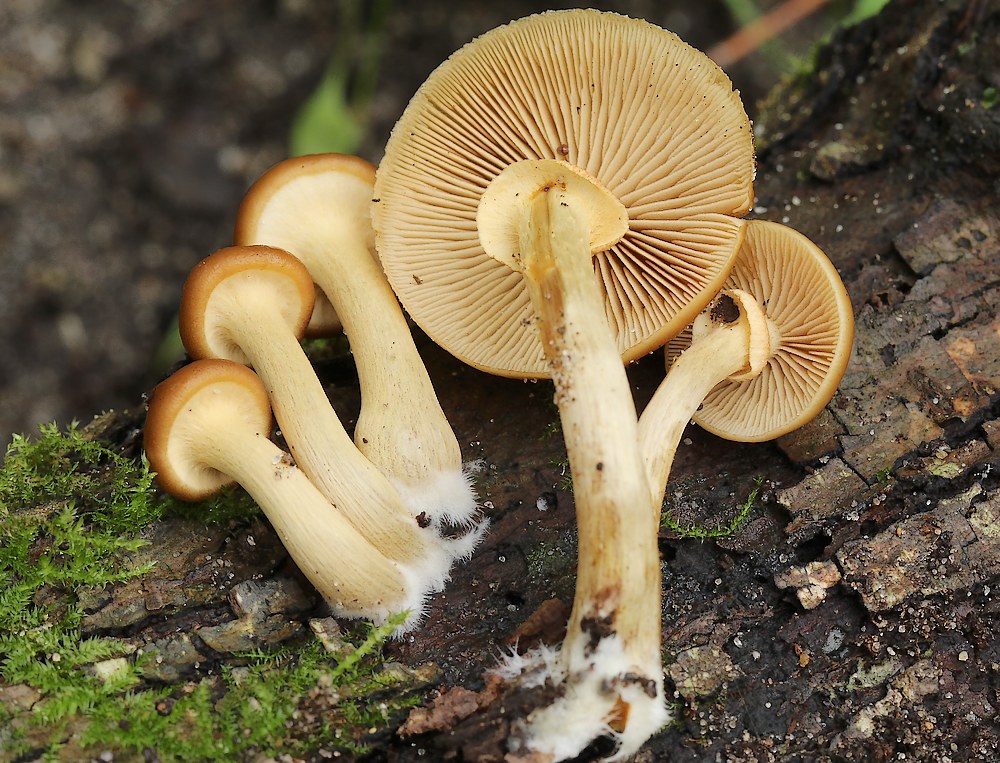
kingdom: Fungi
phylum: Basidiomycota
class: Agaricomycetes
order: Agaricales
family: Hymenogastraceae
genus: Galerina
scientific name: Galerina marginata
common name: randbæltet hjelmhat
